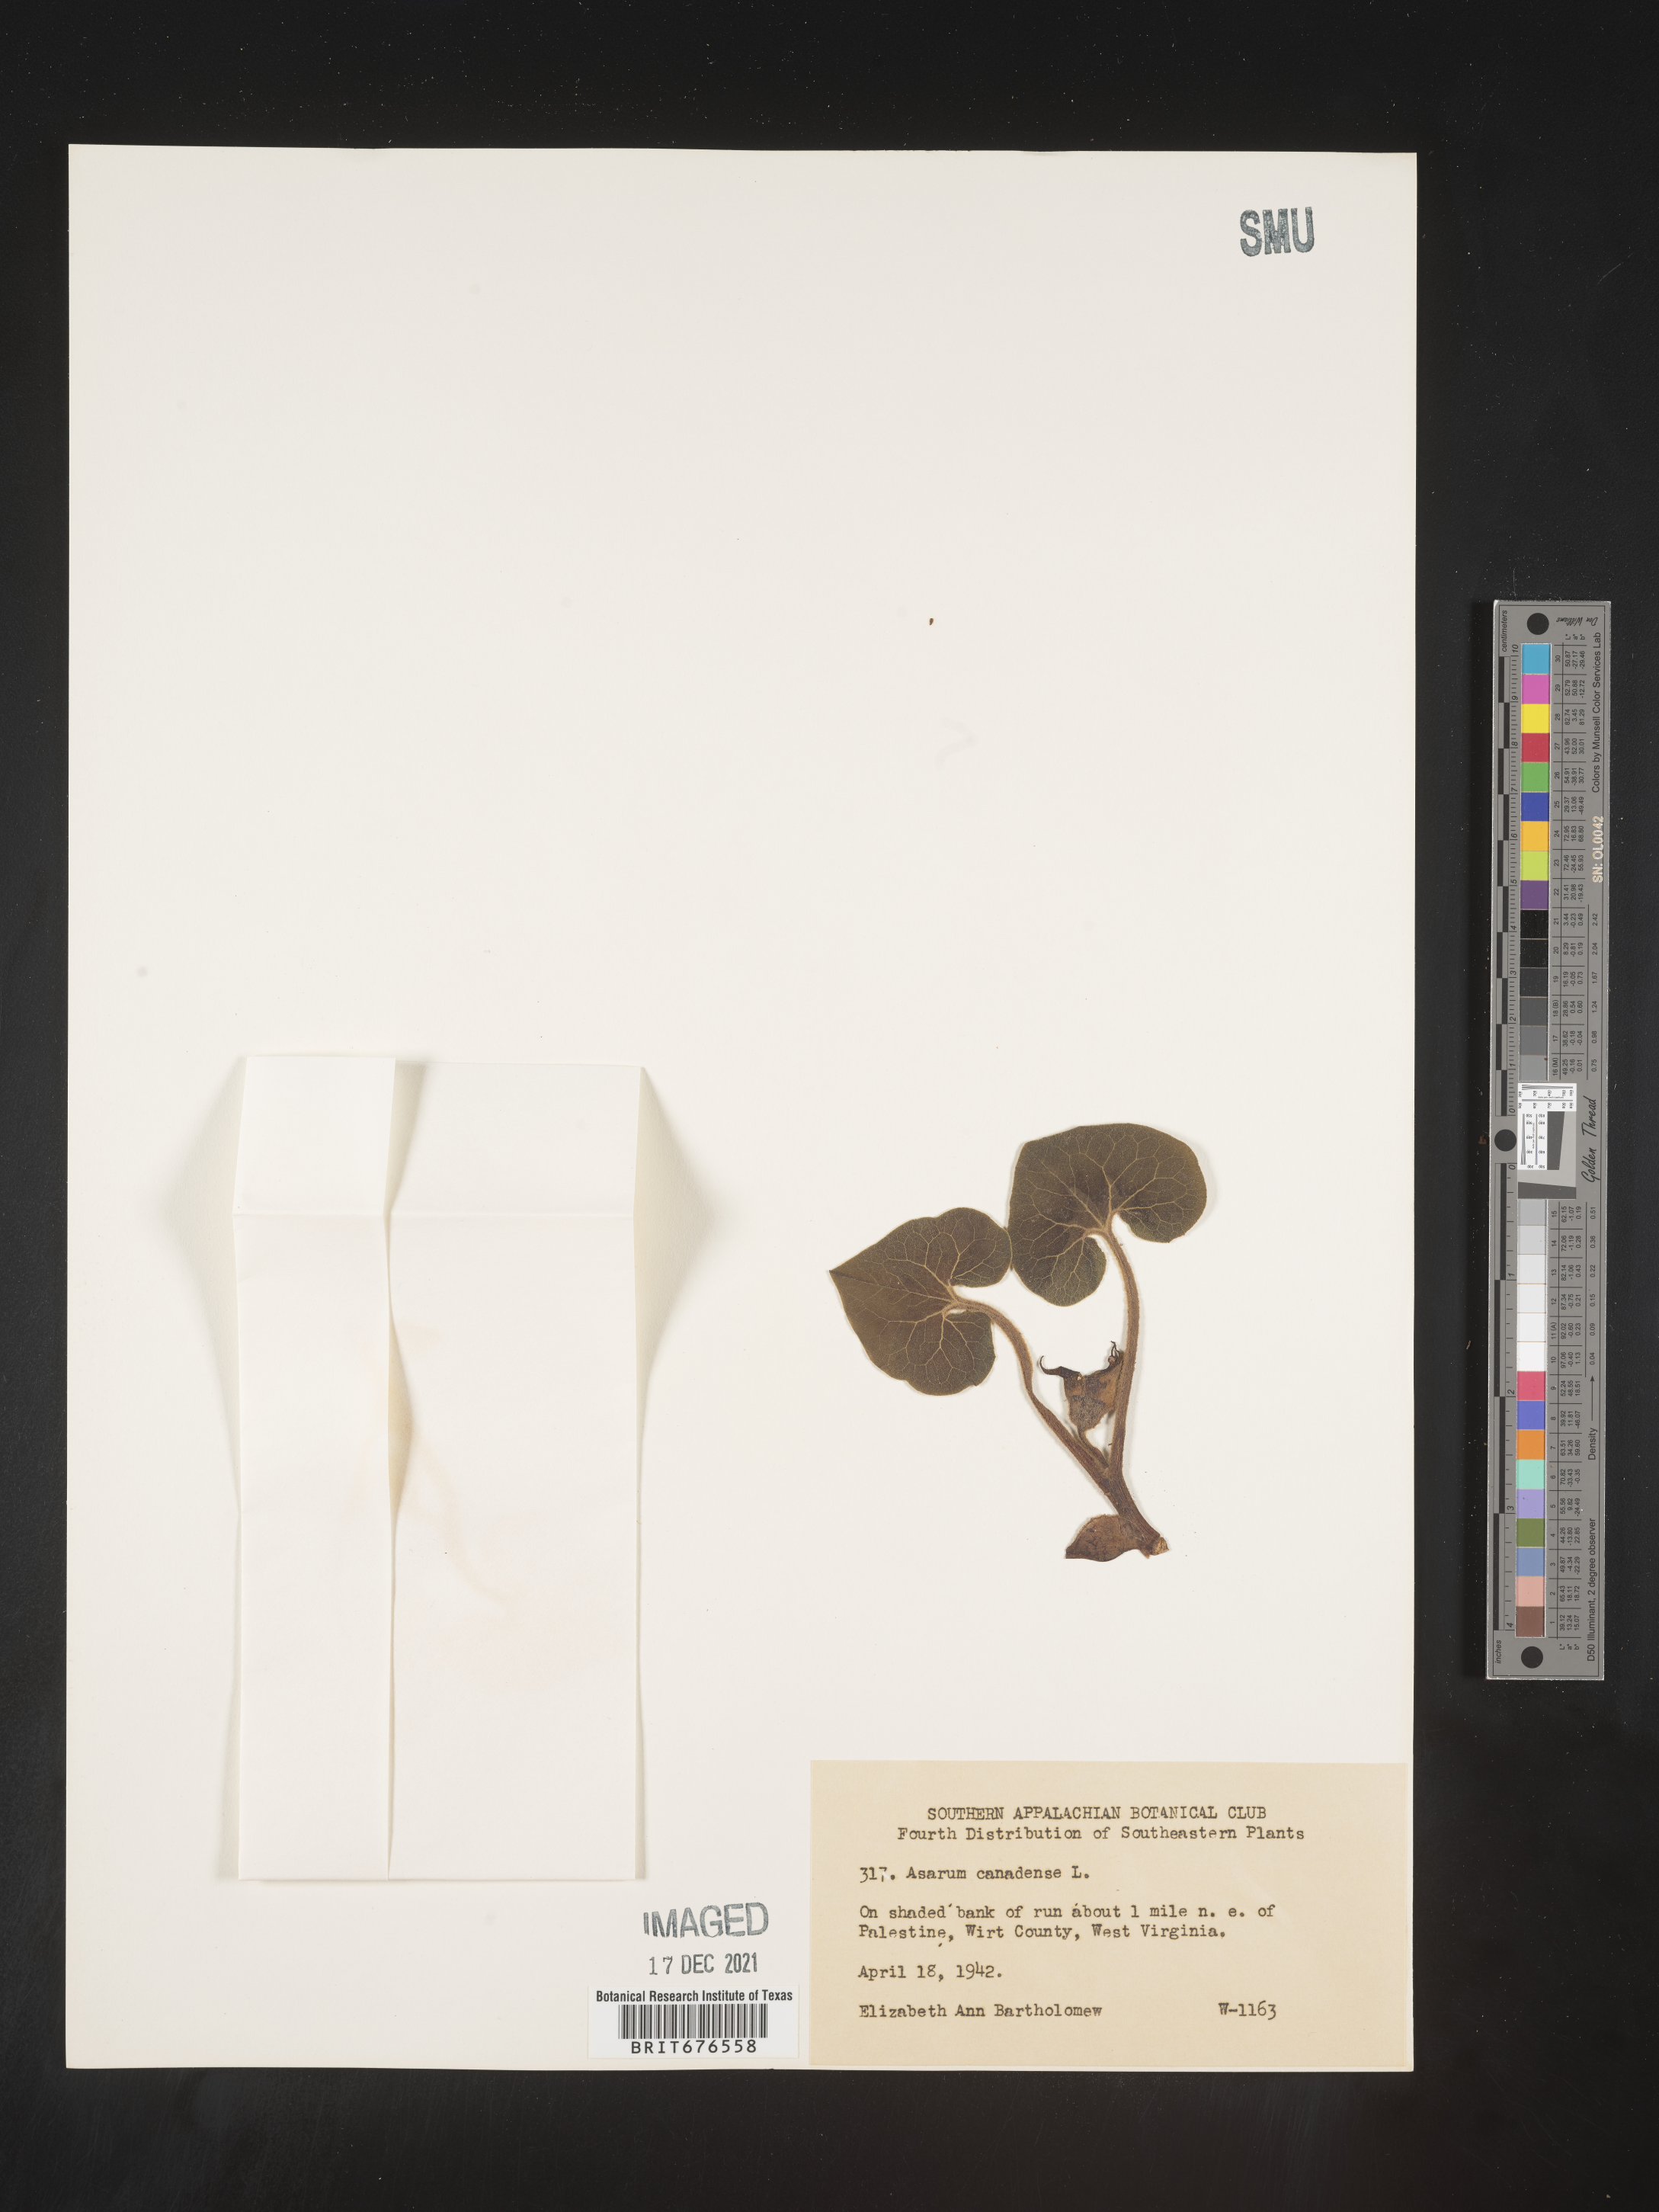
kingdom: Plantae
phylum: Tracheophyta
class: Magnoliopsida
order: Piperales
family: Aristolochiaceae
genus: Asarum
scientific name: Asarum canadense
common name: Wild ginger
